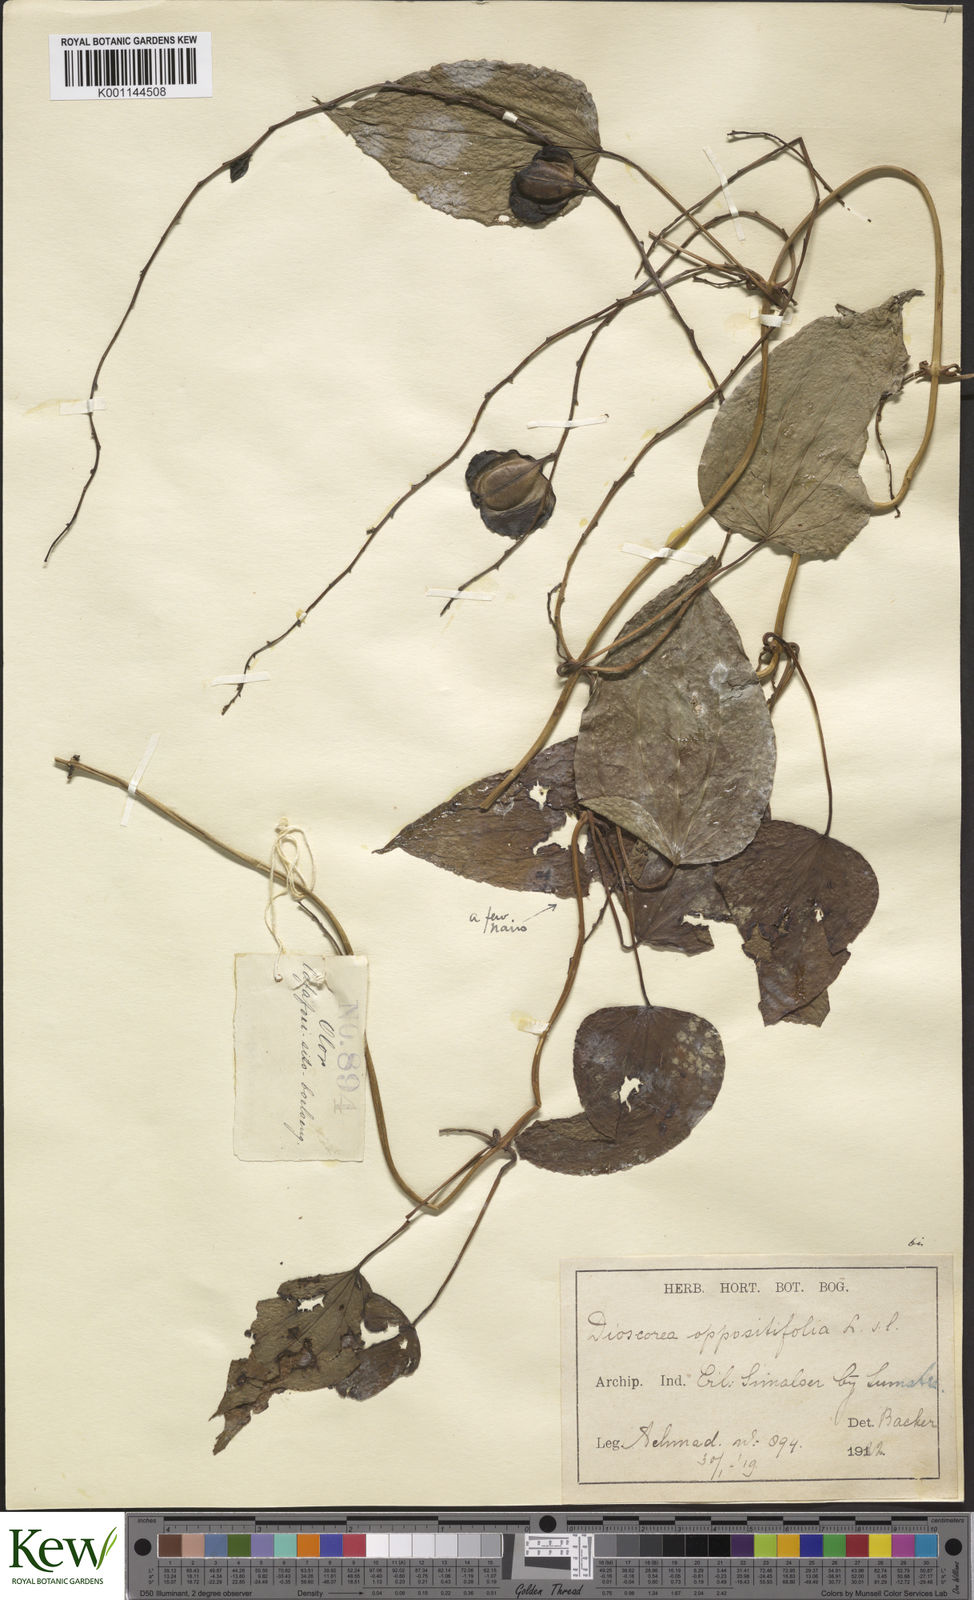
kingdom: Plantae
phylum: Tracheophyta
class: Liliopsida
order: Dioscoreales
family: Dioscoreaceae
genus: Dioscorea
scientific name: Dioscorea pyrifolia
